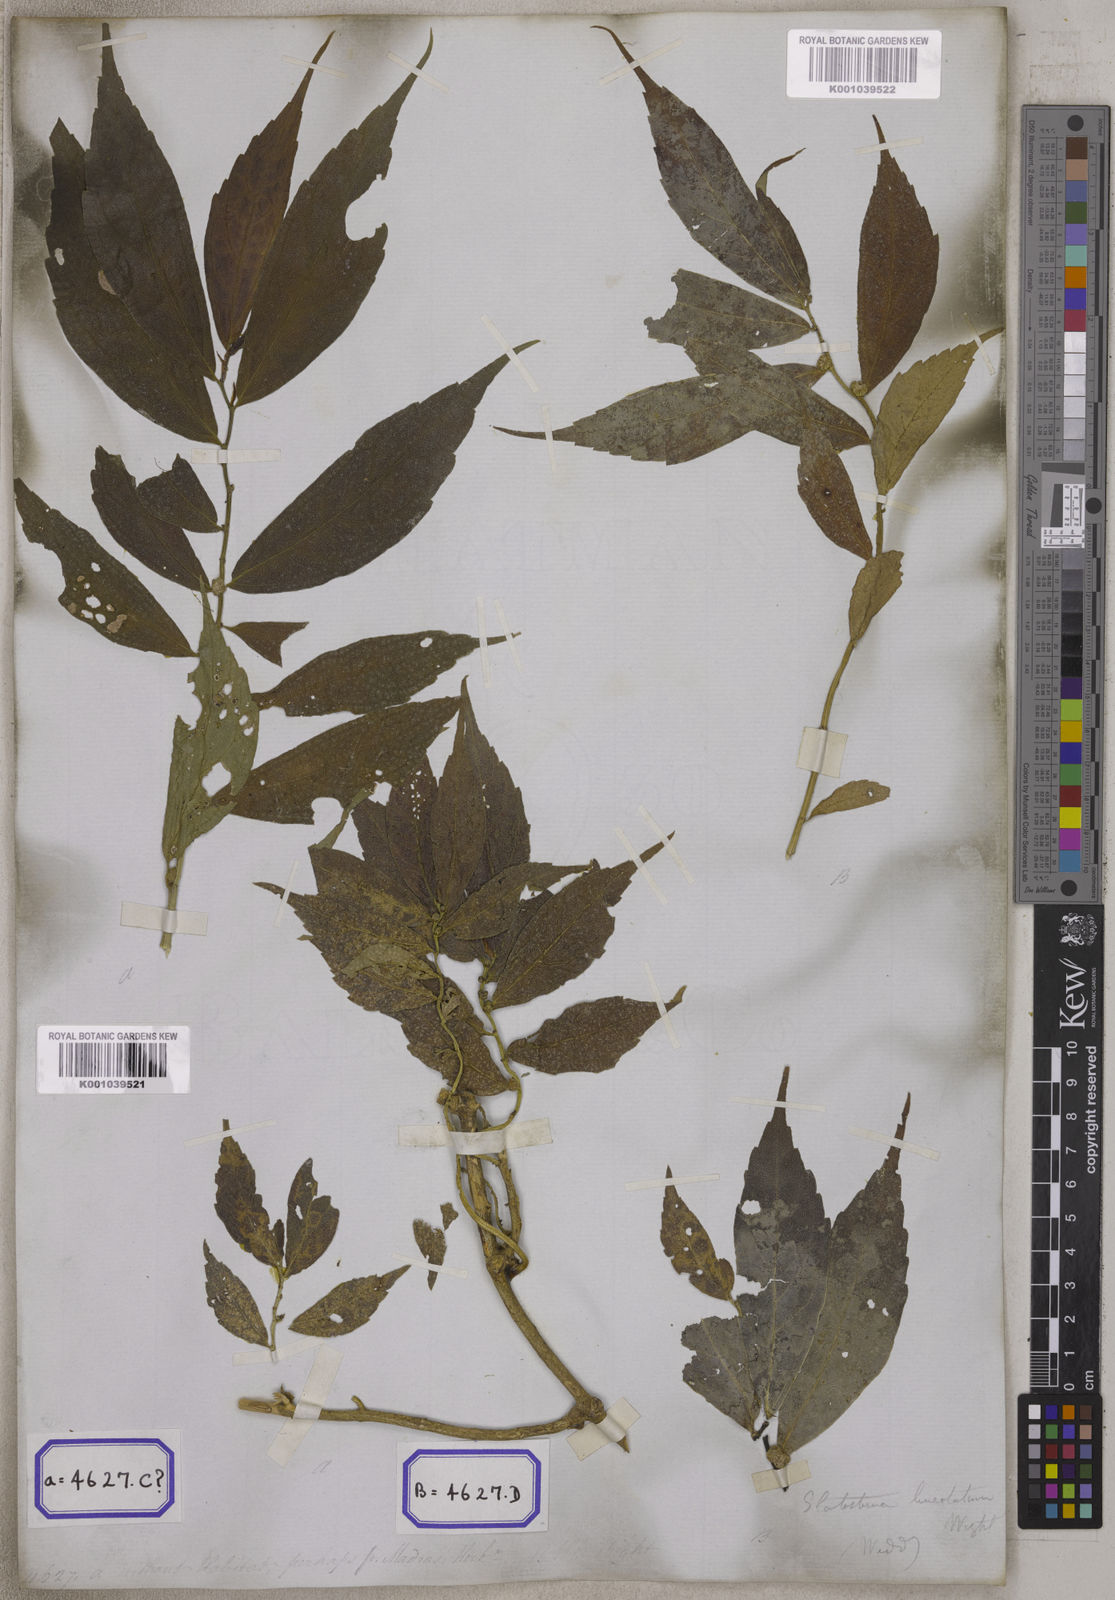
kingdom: Plantae
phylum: Tracheophyta
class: Magnoliopsida
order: Rosales
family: Urticaceae
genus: Procris
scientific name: Procris
